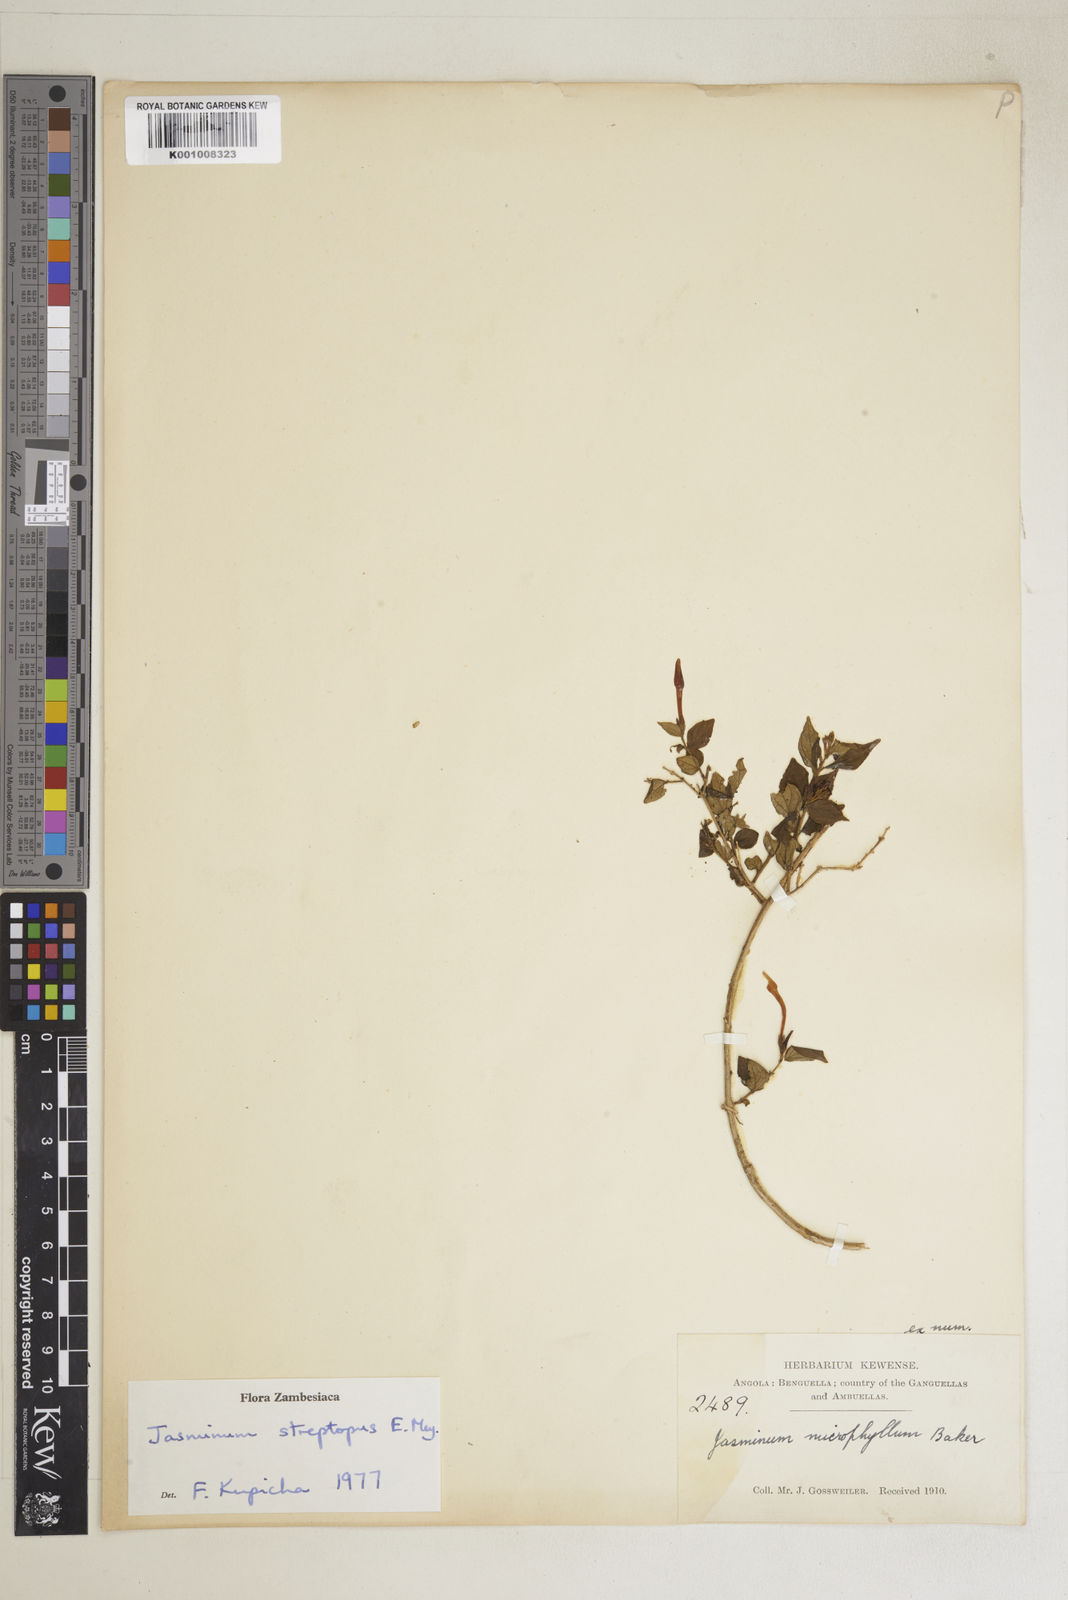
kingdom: Plantae
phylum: Tracheophyta
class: Magnoliopsida
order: Lamiales
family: Oleaceae
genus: Jasminum
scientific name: Jasminum streptopus
